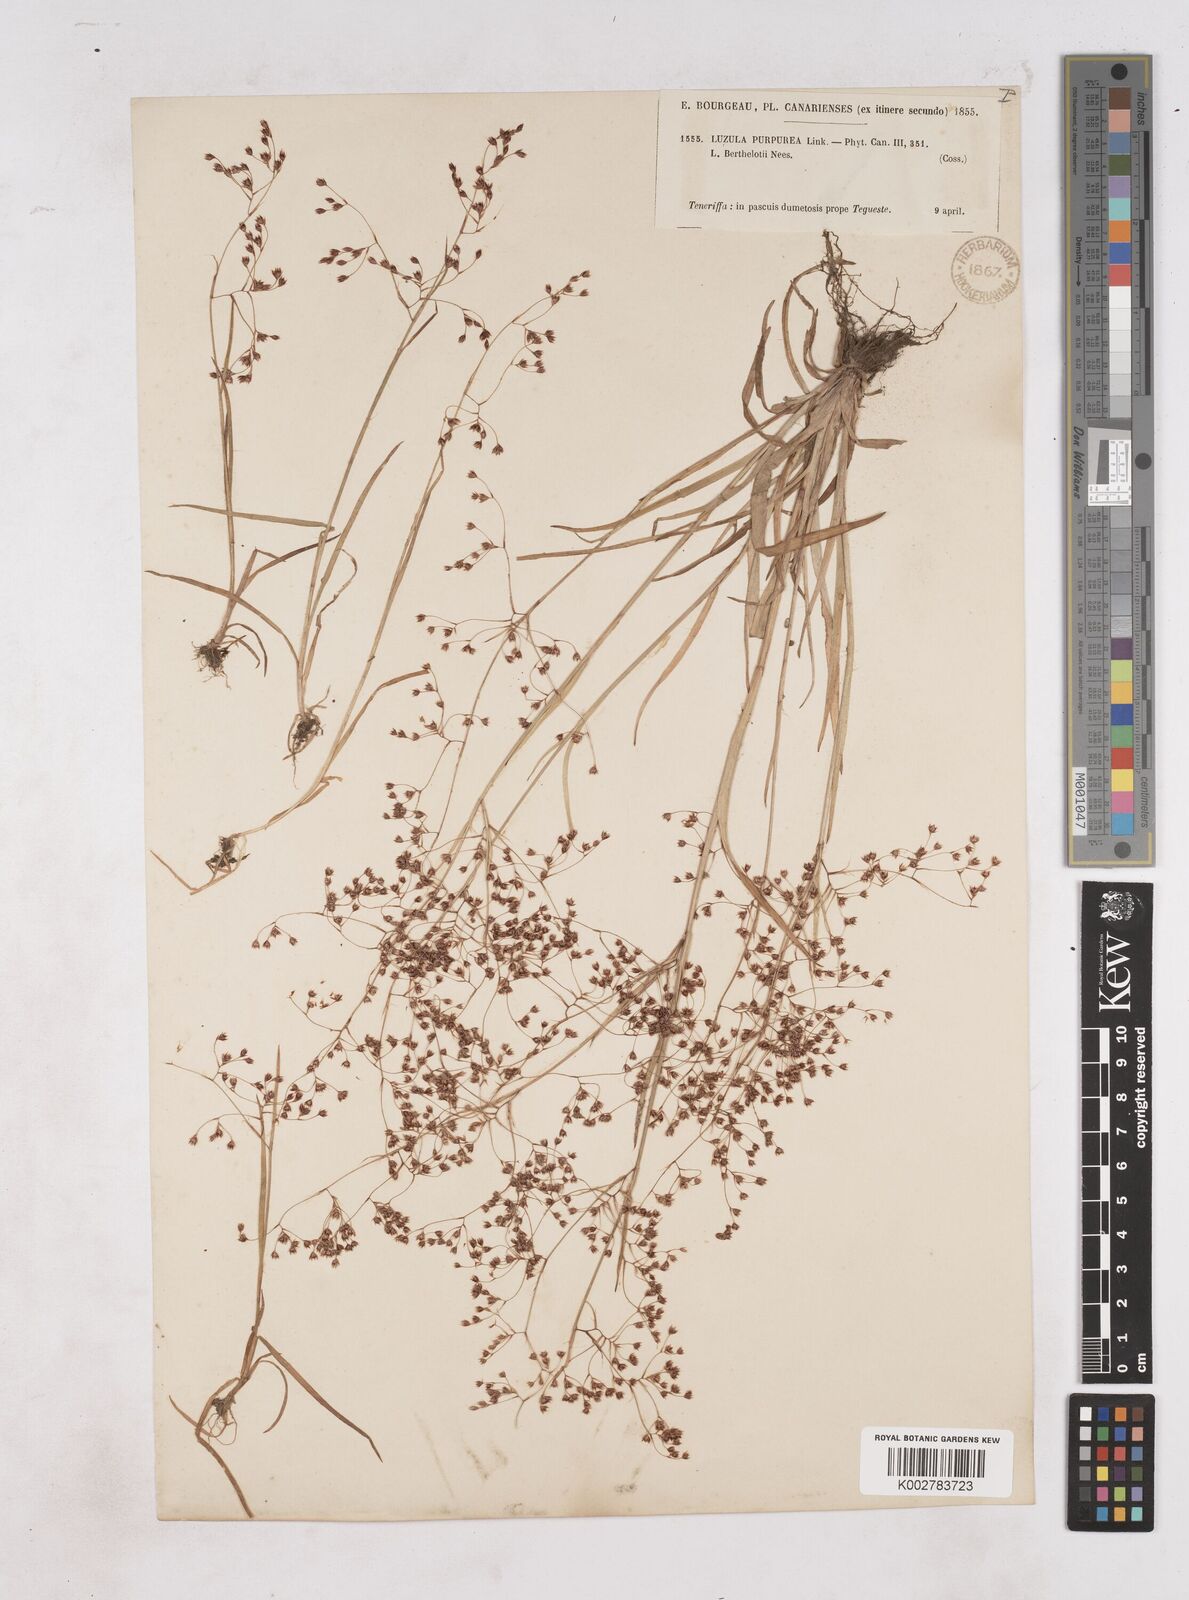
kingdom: Plantae
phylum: Tracheophyta
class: Liliopsida
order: Poales
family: Juncaceae
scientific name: Juncaceae
